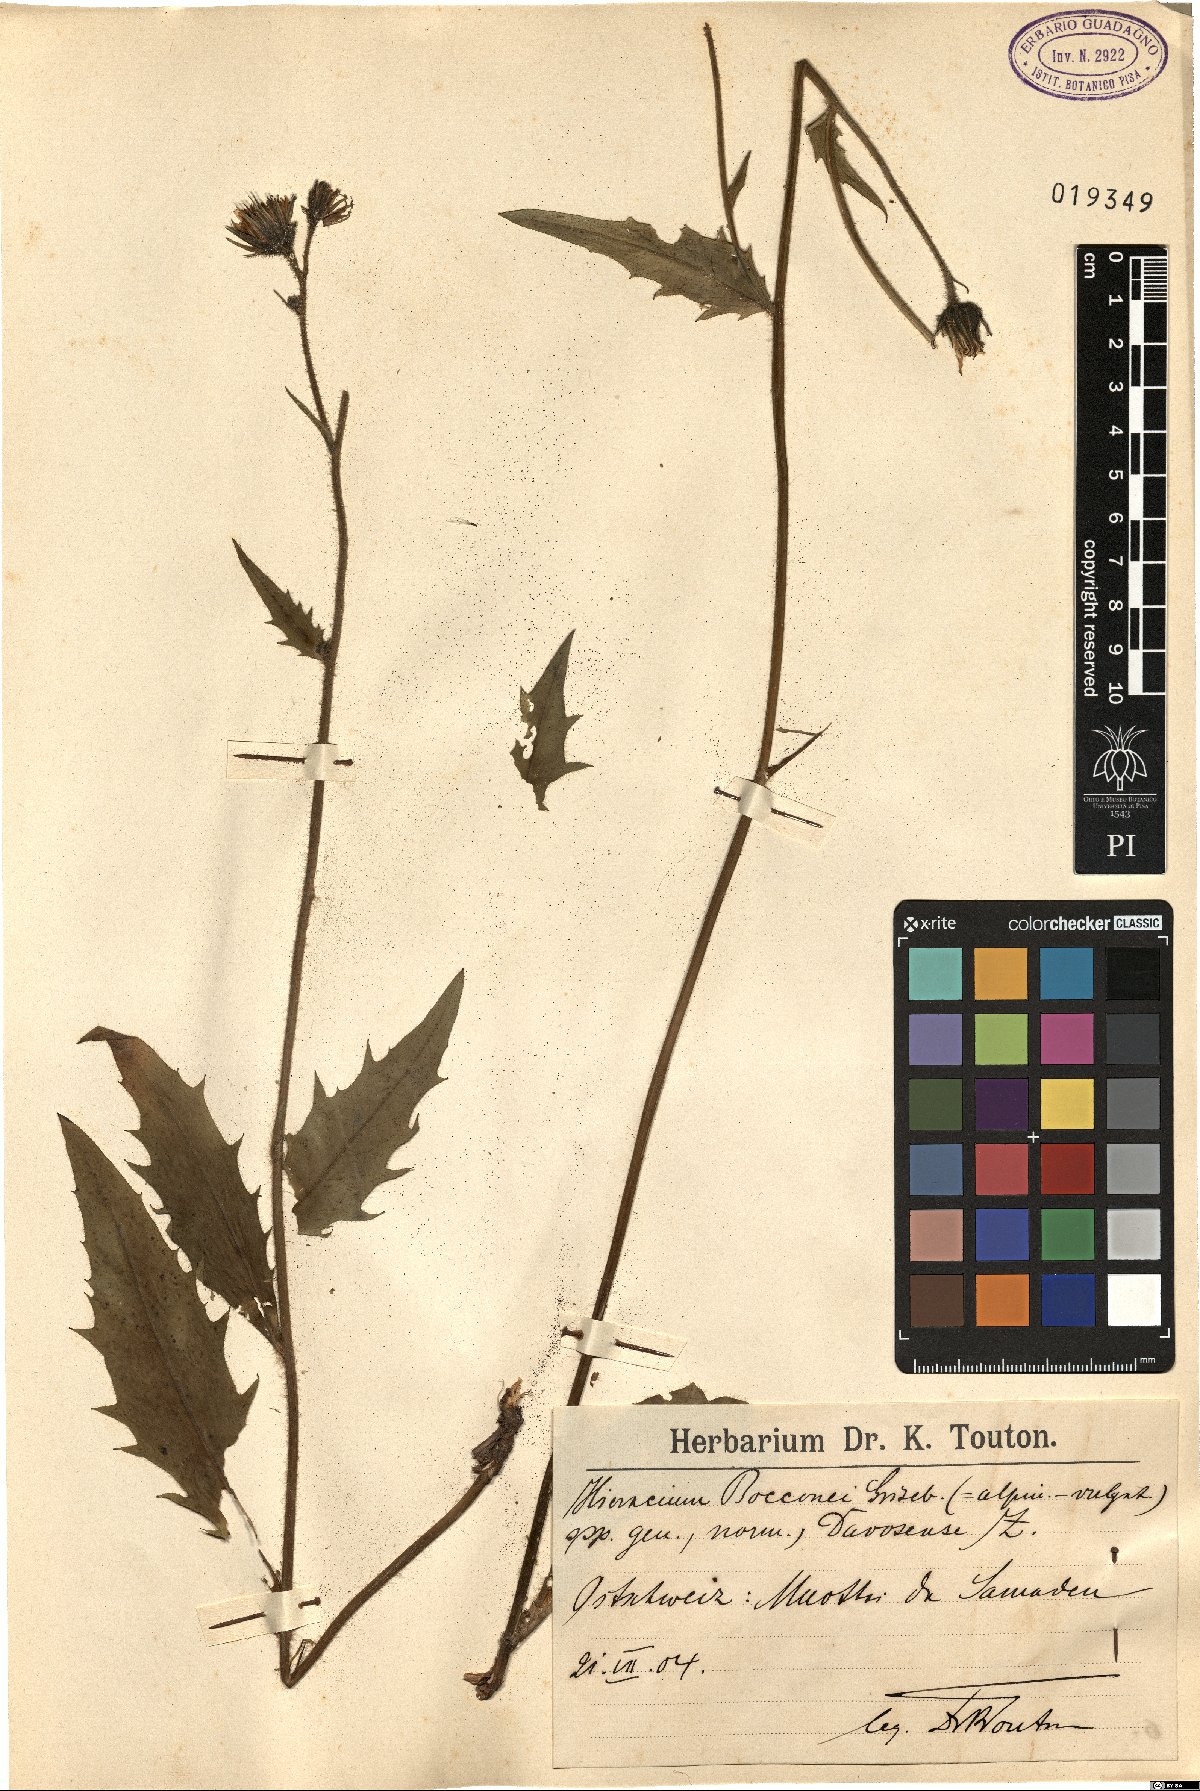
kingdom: Plantae
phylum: Tracheophyta
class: Magnoliopsida
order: Asterales
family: Asteraceae
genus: Hieracium
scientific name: Hieracium bocconei
